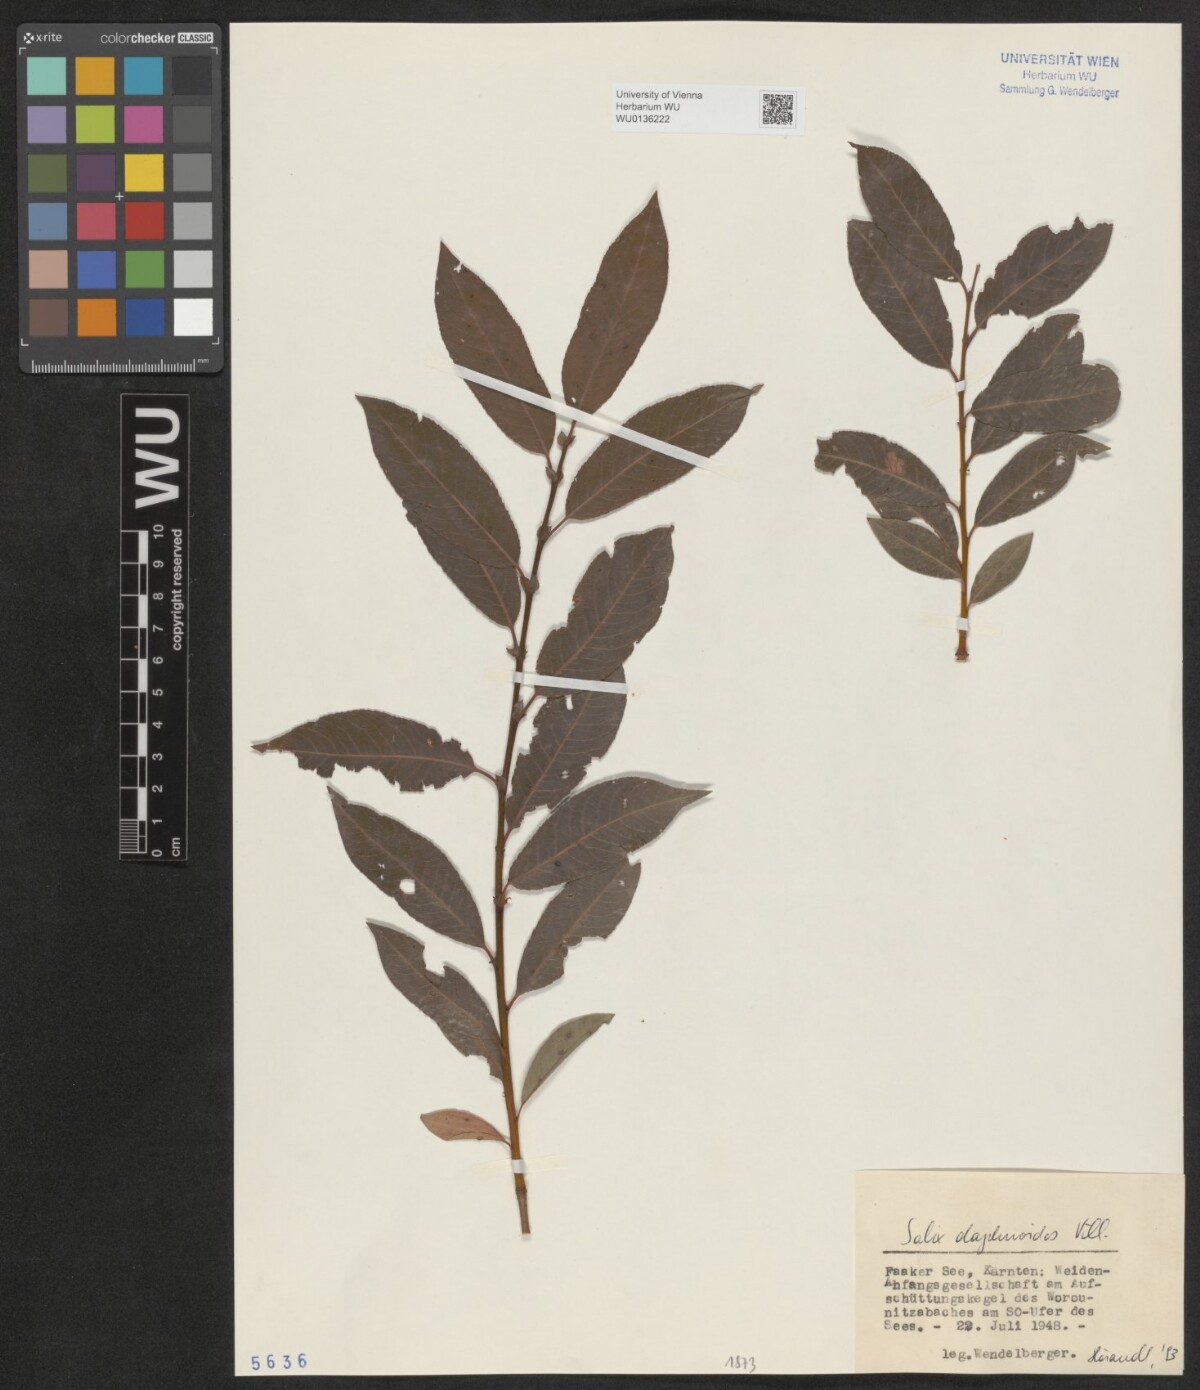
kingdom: Plantae
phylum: Tracheophyta
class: Magnoliopsida
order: Malpighiales
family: Salicaceae
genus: Salix
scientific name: Salix daphnoides
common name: European violet-willow
